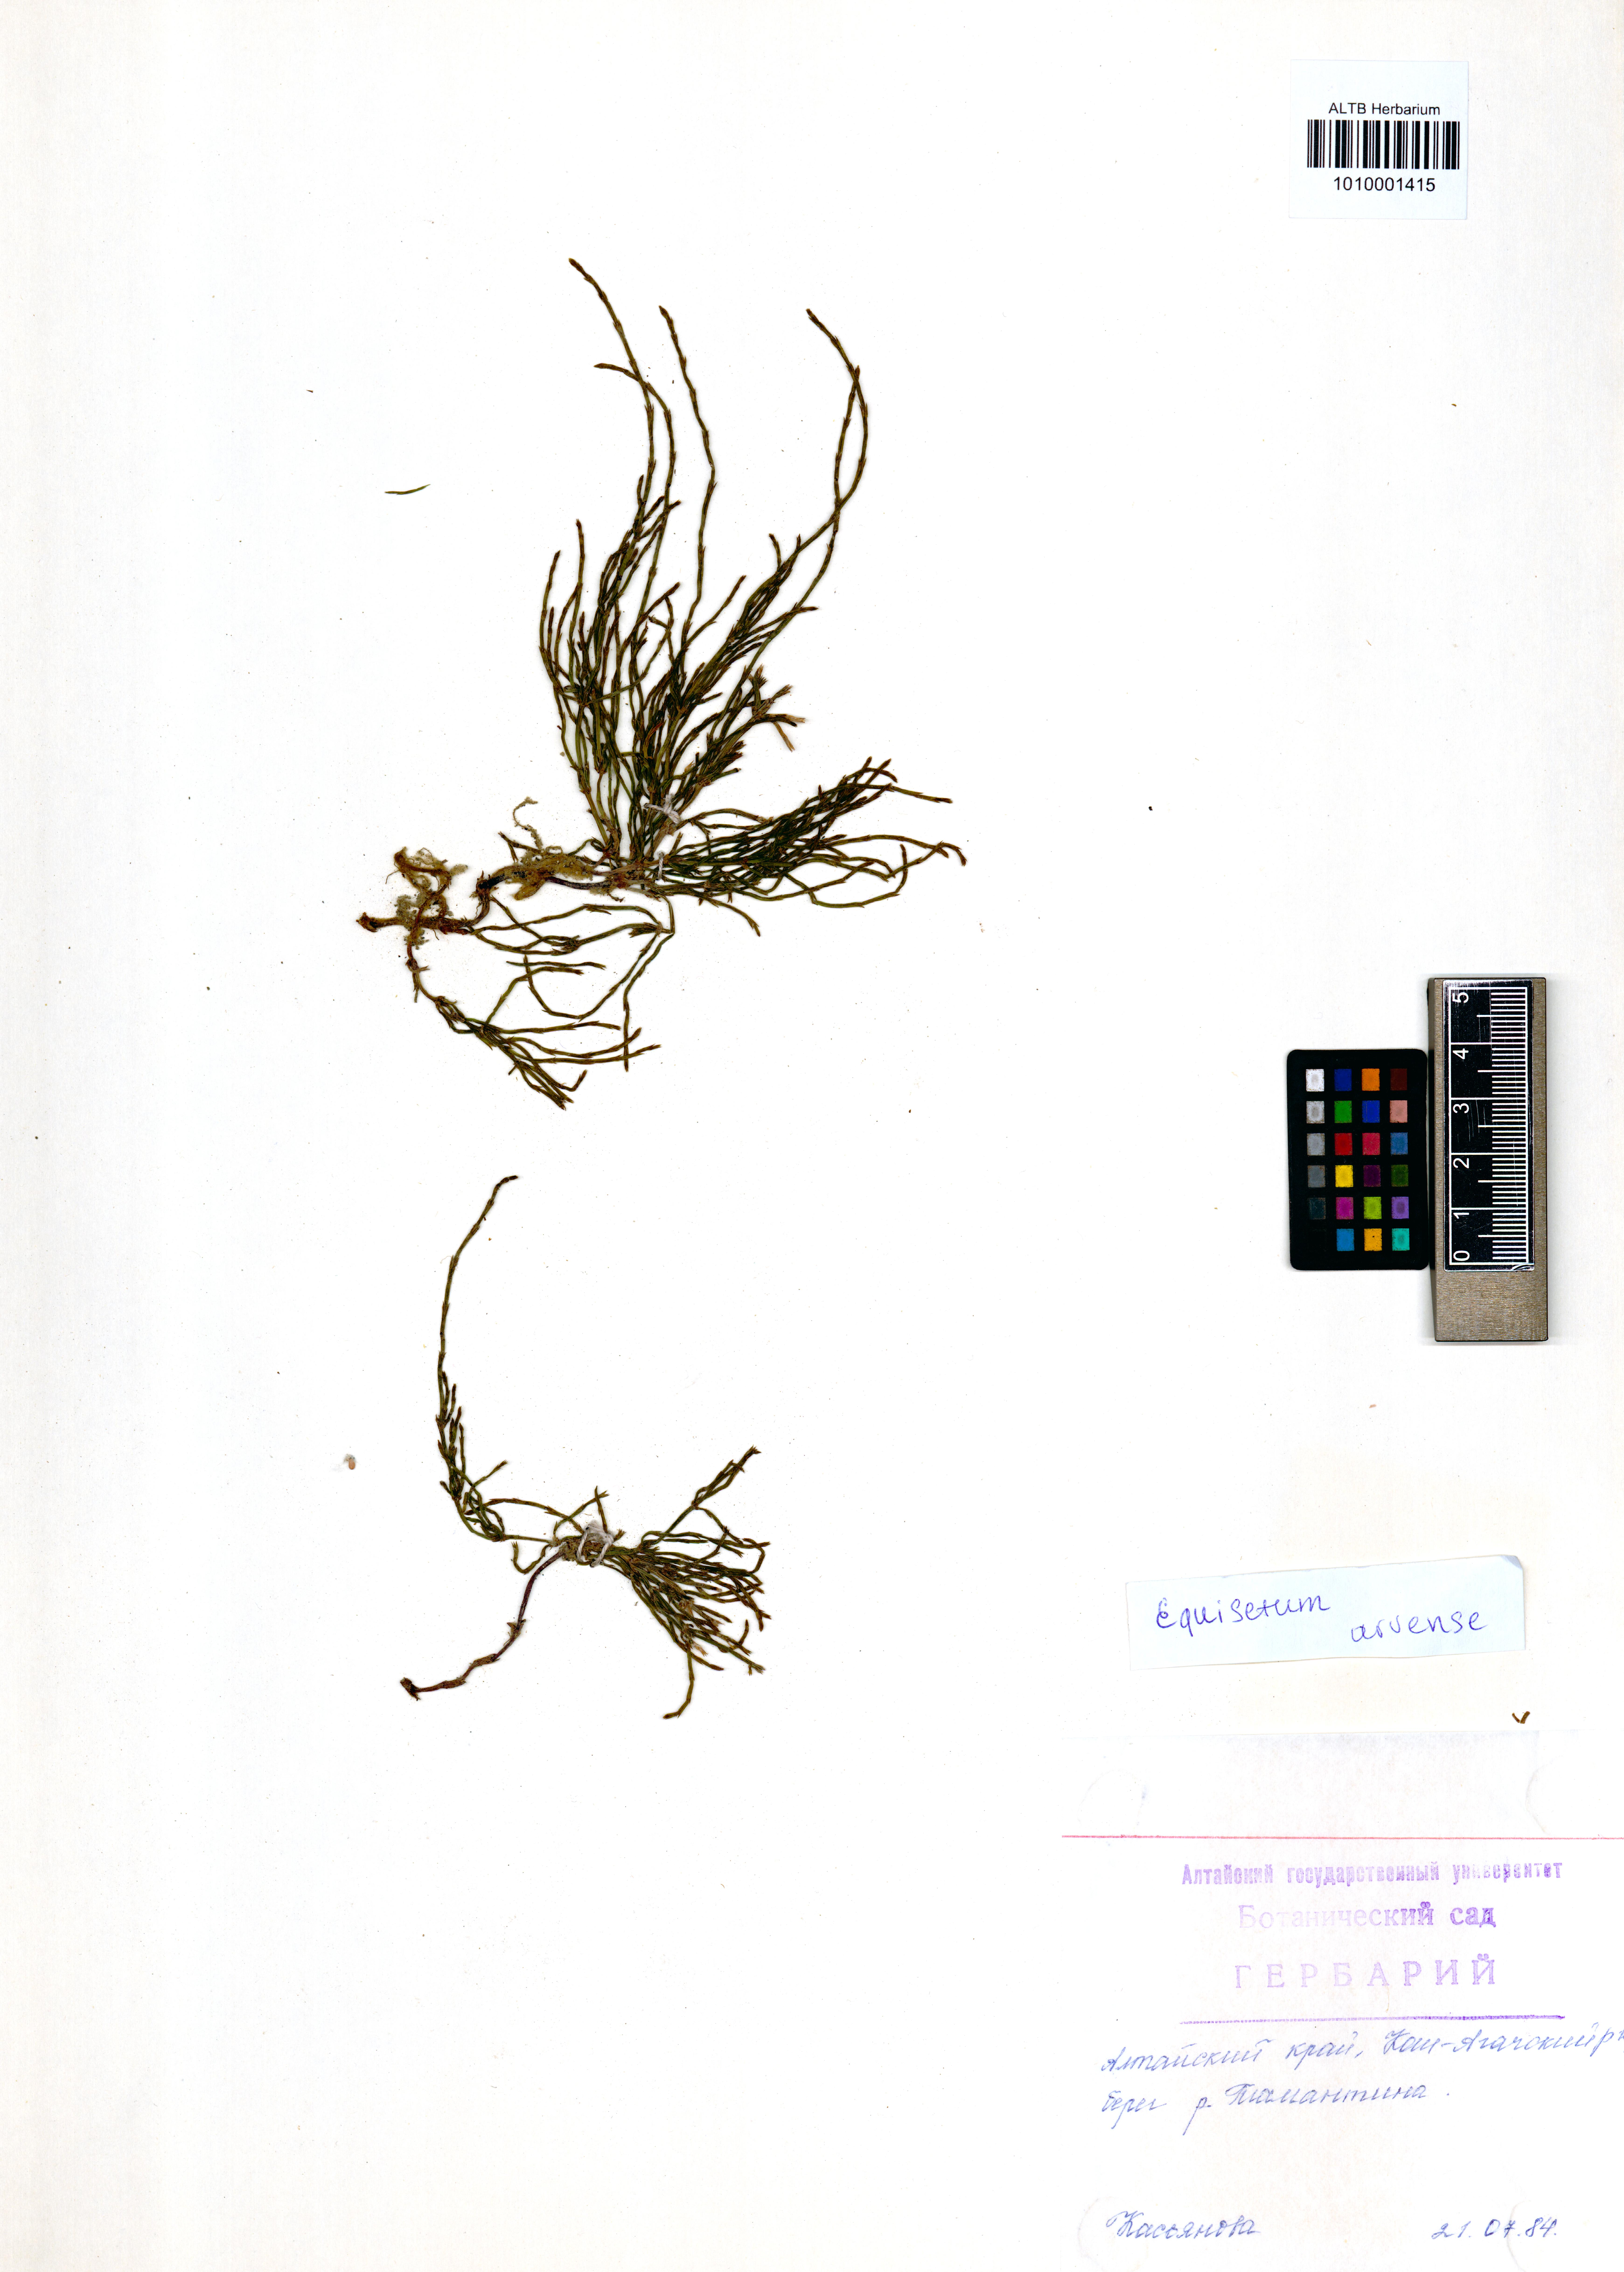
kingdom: Plantae
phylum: Tracheophyta
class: Polypodiopsida
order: Equisetales
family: Equisetaceae
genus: Equisetum
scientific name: Equisetum arvense
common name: Field horsetail
